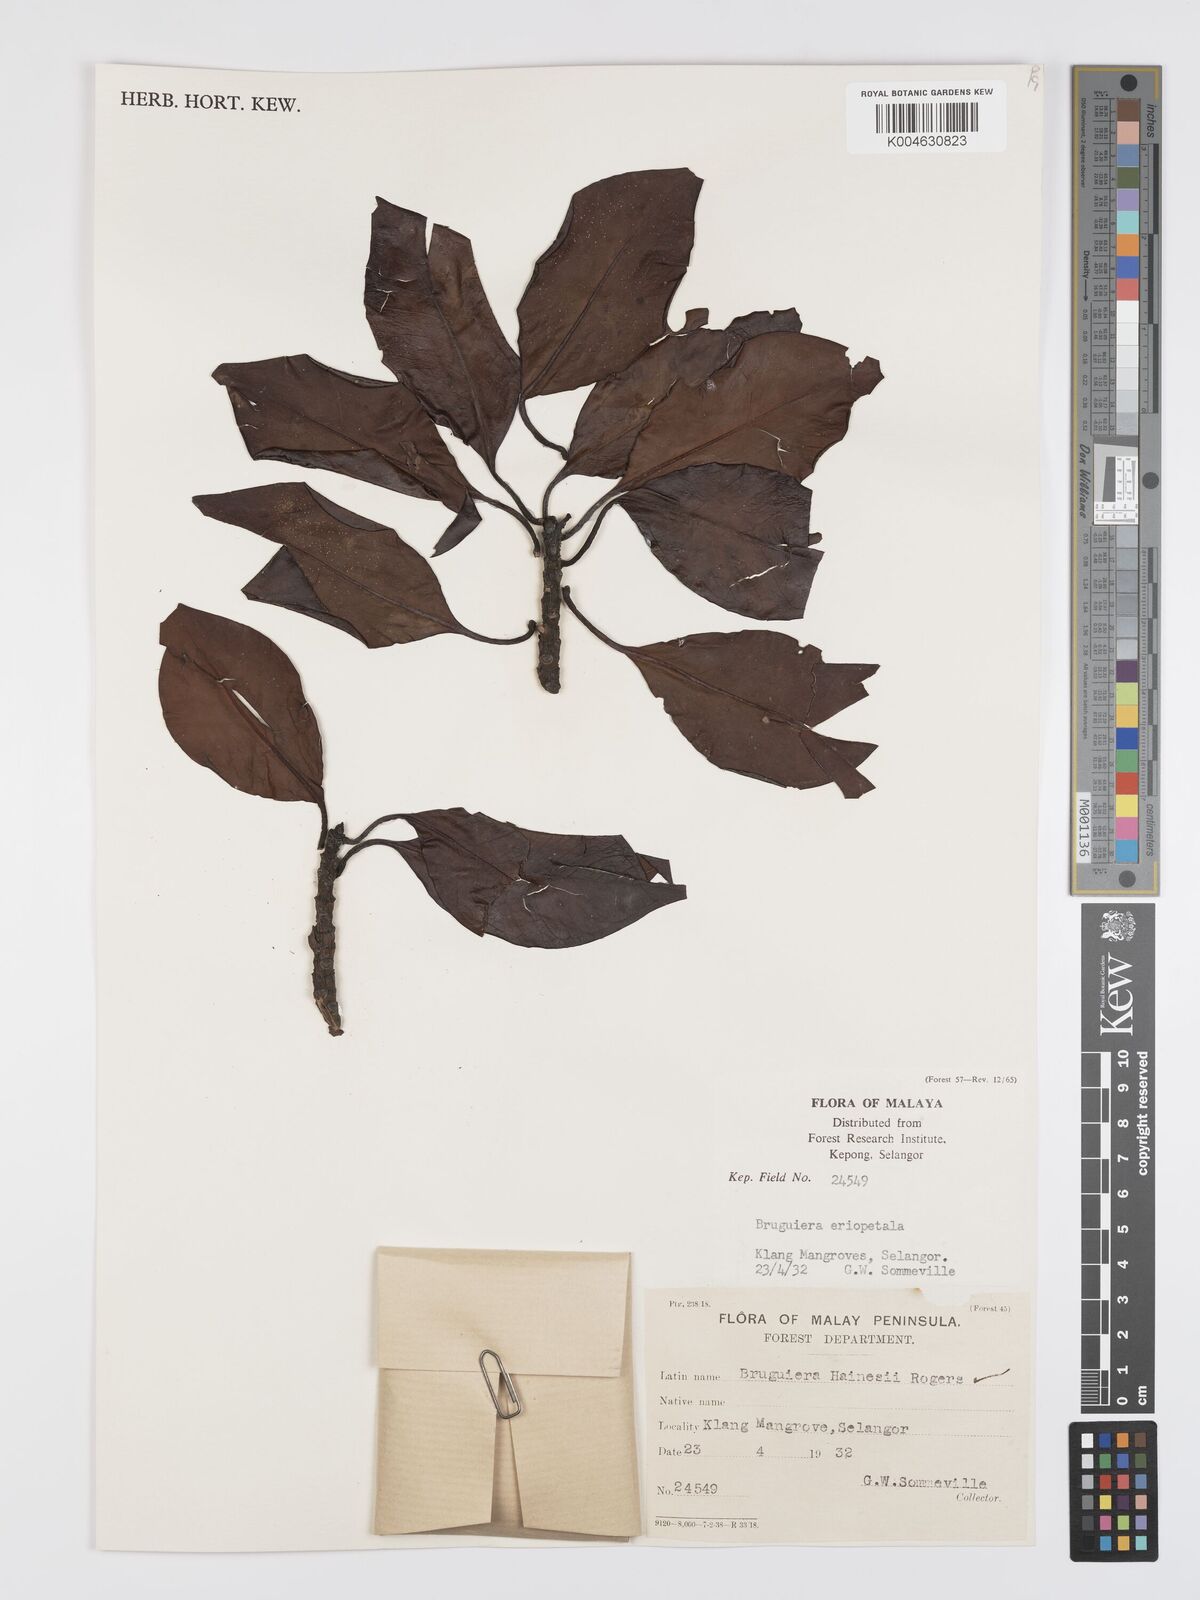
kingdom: Plantae
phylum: Tracheophyta
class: Magnoliopsida
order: Malpighiales
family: Rhizophoraceae
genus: Bruguiera
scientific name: Bruguiera hainesii
